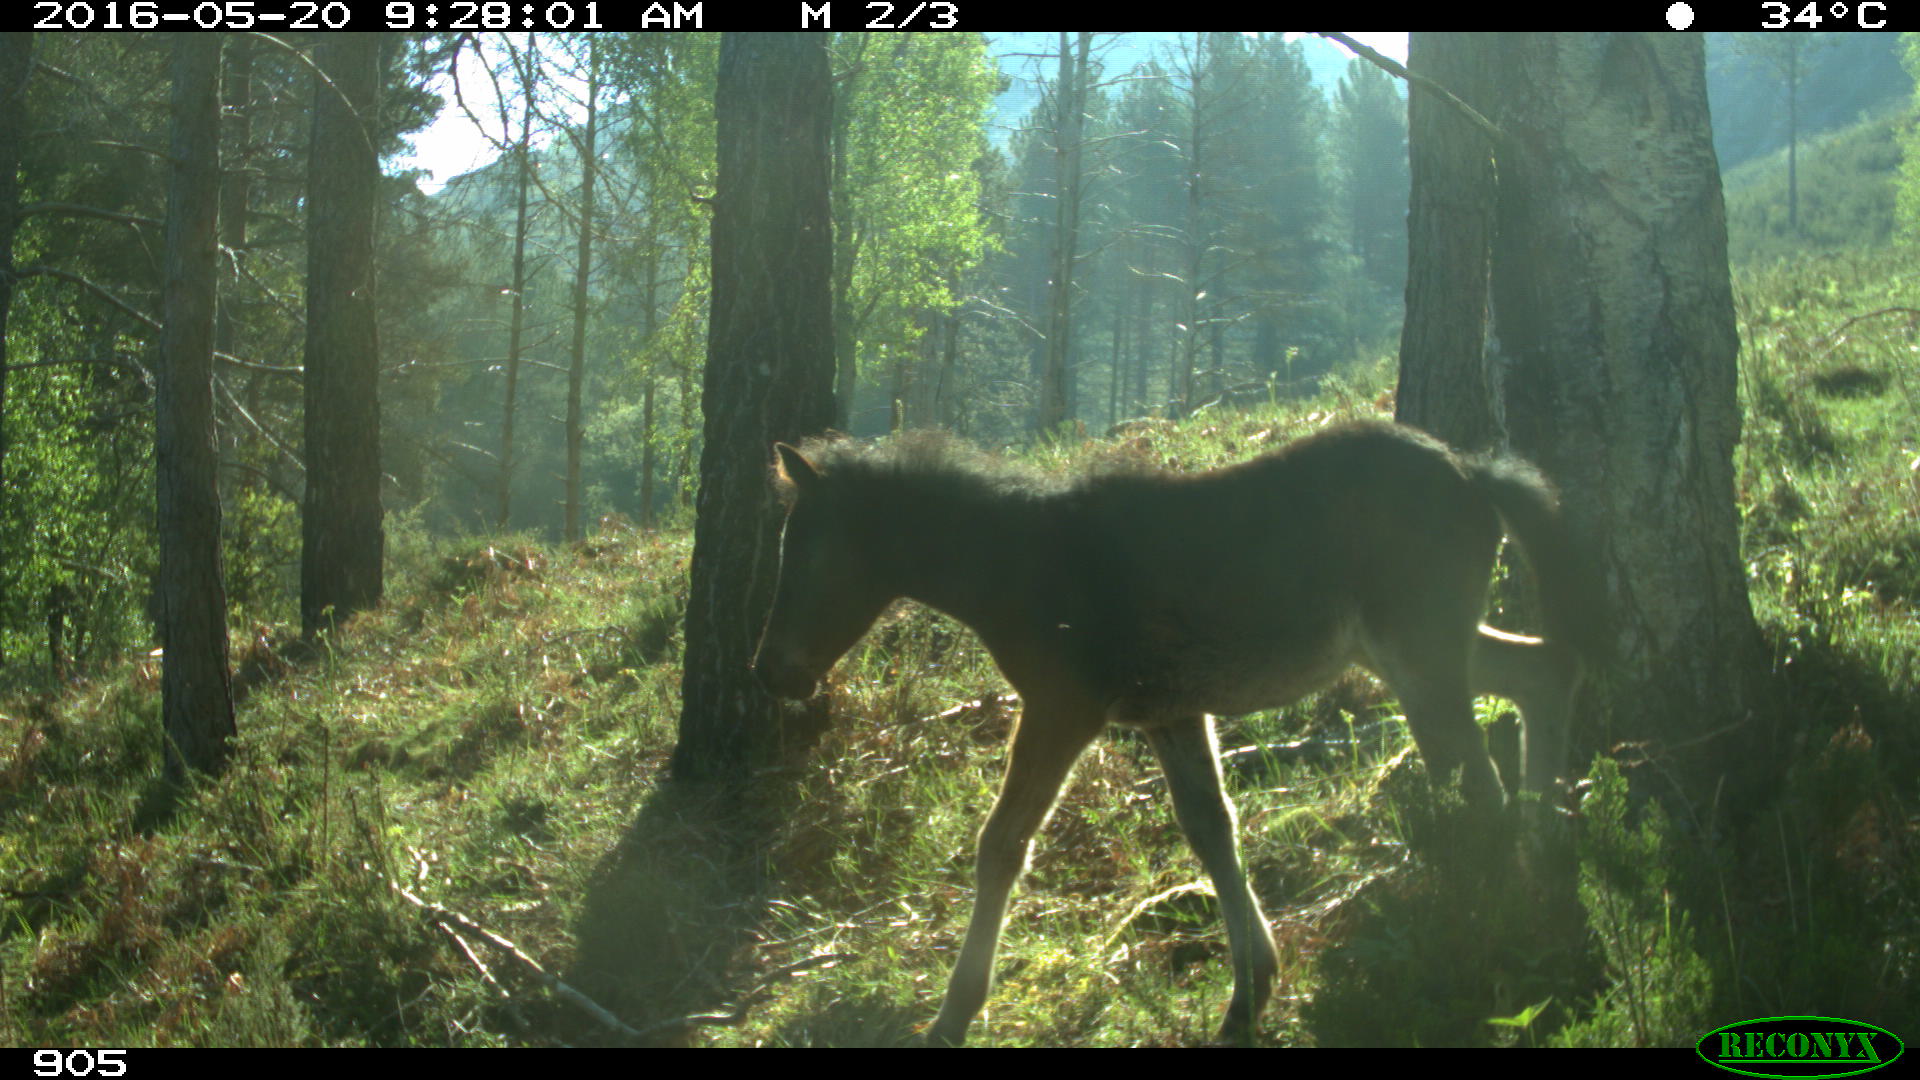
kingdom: Animalia
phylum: Chordata
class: Mammalia
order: Perissodactyla
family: Equidae
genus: Equus
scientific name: Equus caballus
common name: Horse
